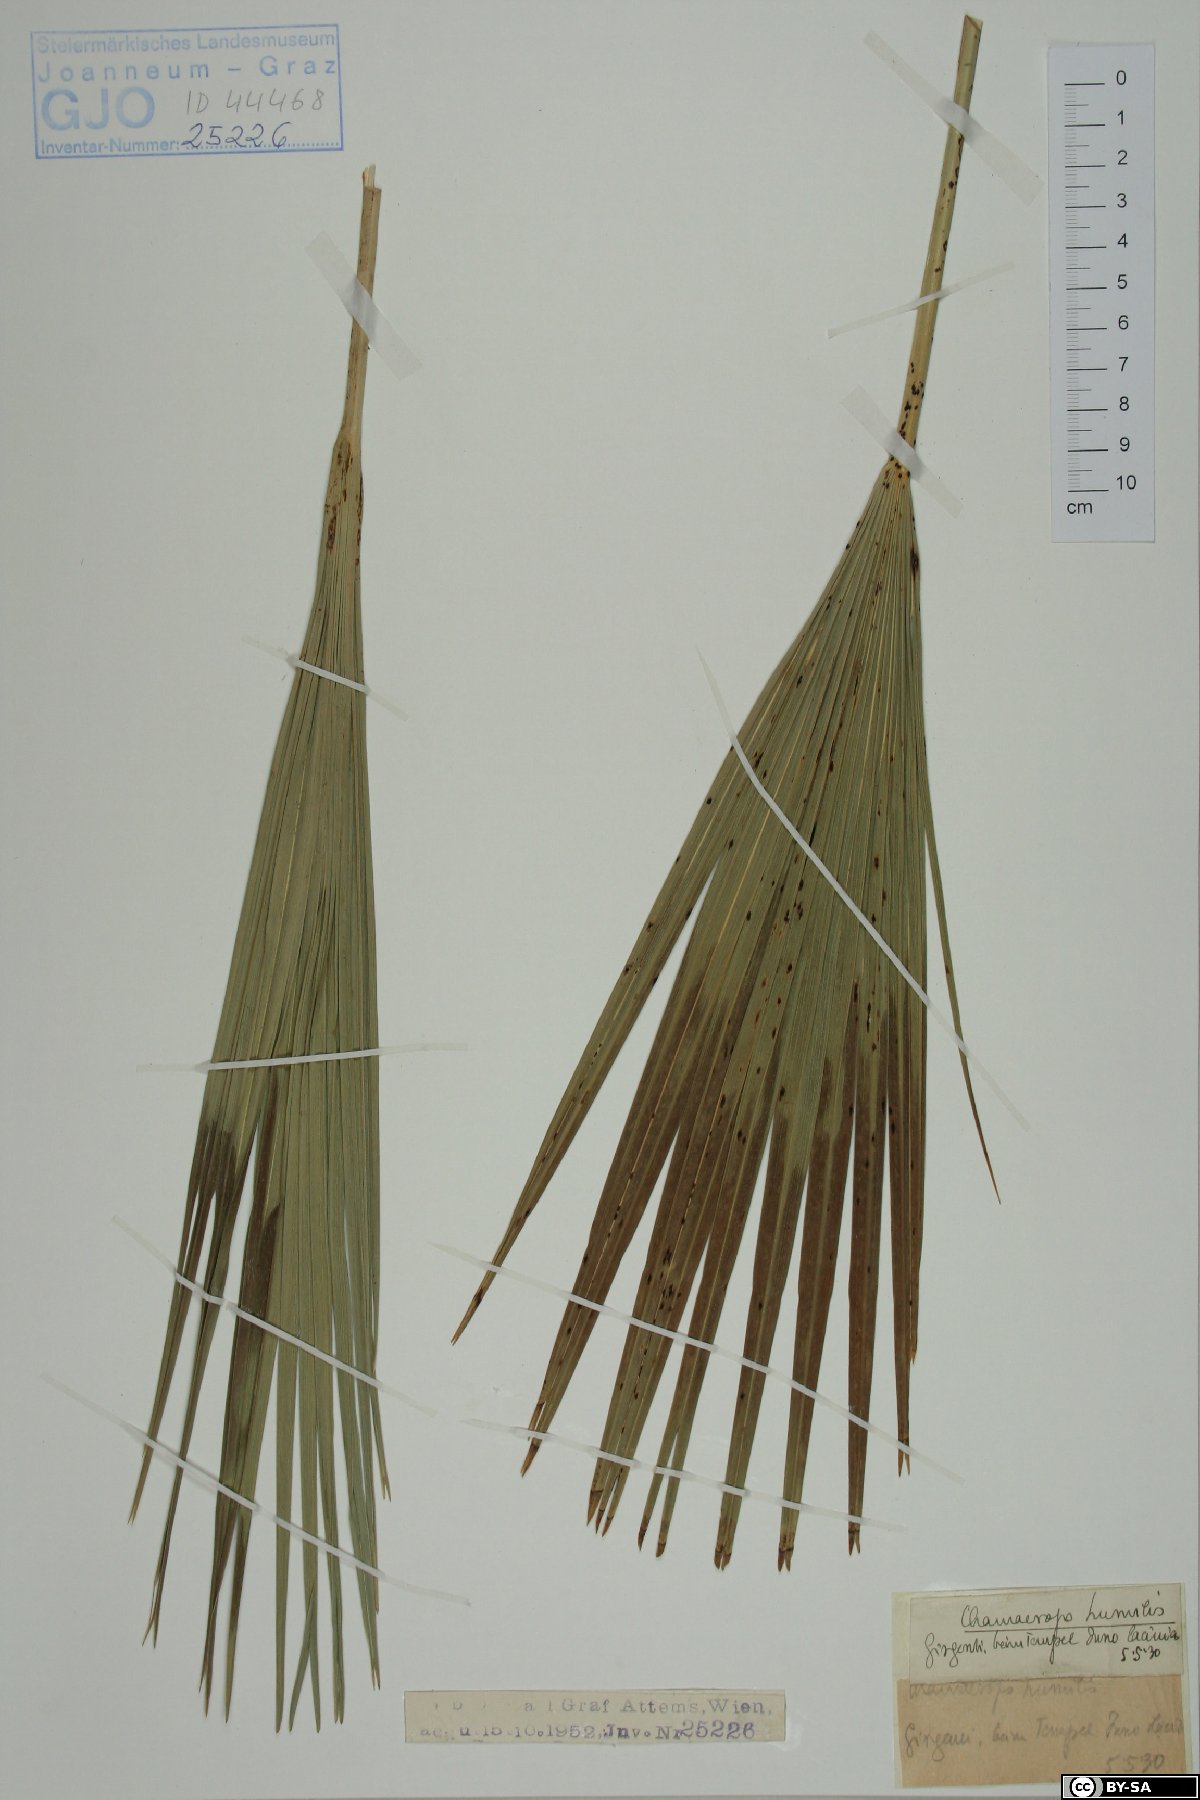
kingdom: Plantae
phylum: Tracheophyta
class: Liliopsida
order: Arecales
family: Arecaceae
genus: Chamaerops
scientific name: Chamaerops humilis
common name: Dwarf fan palm
